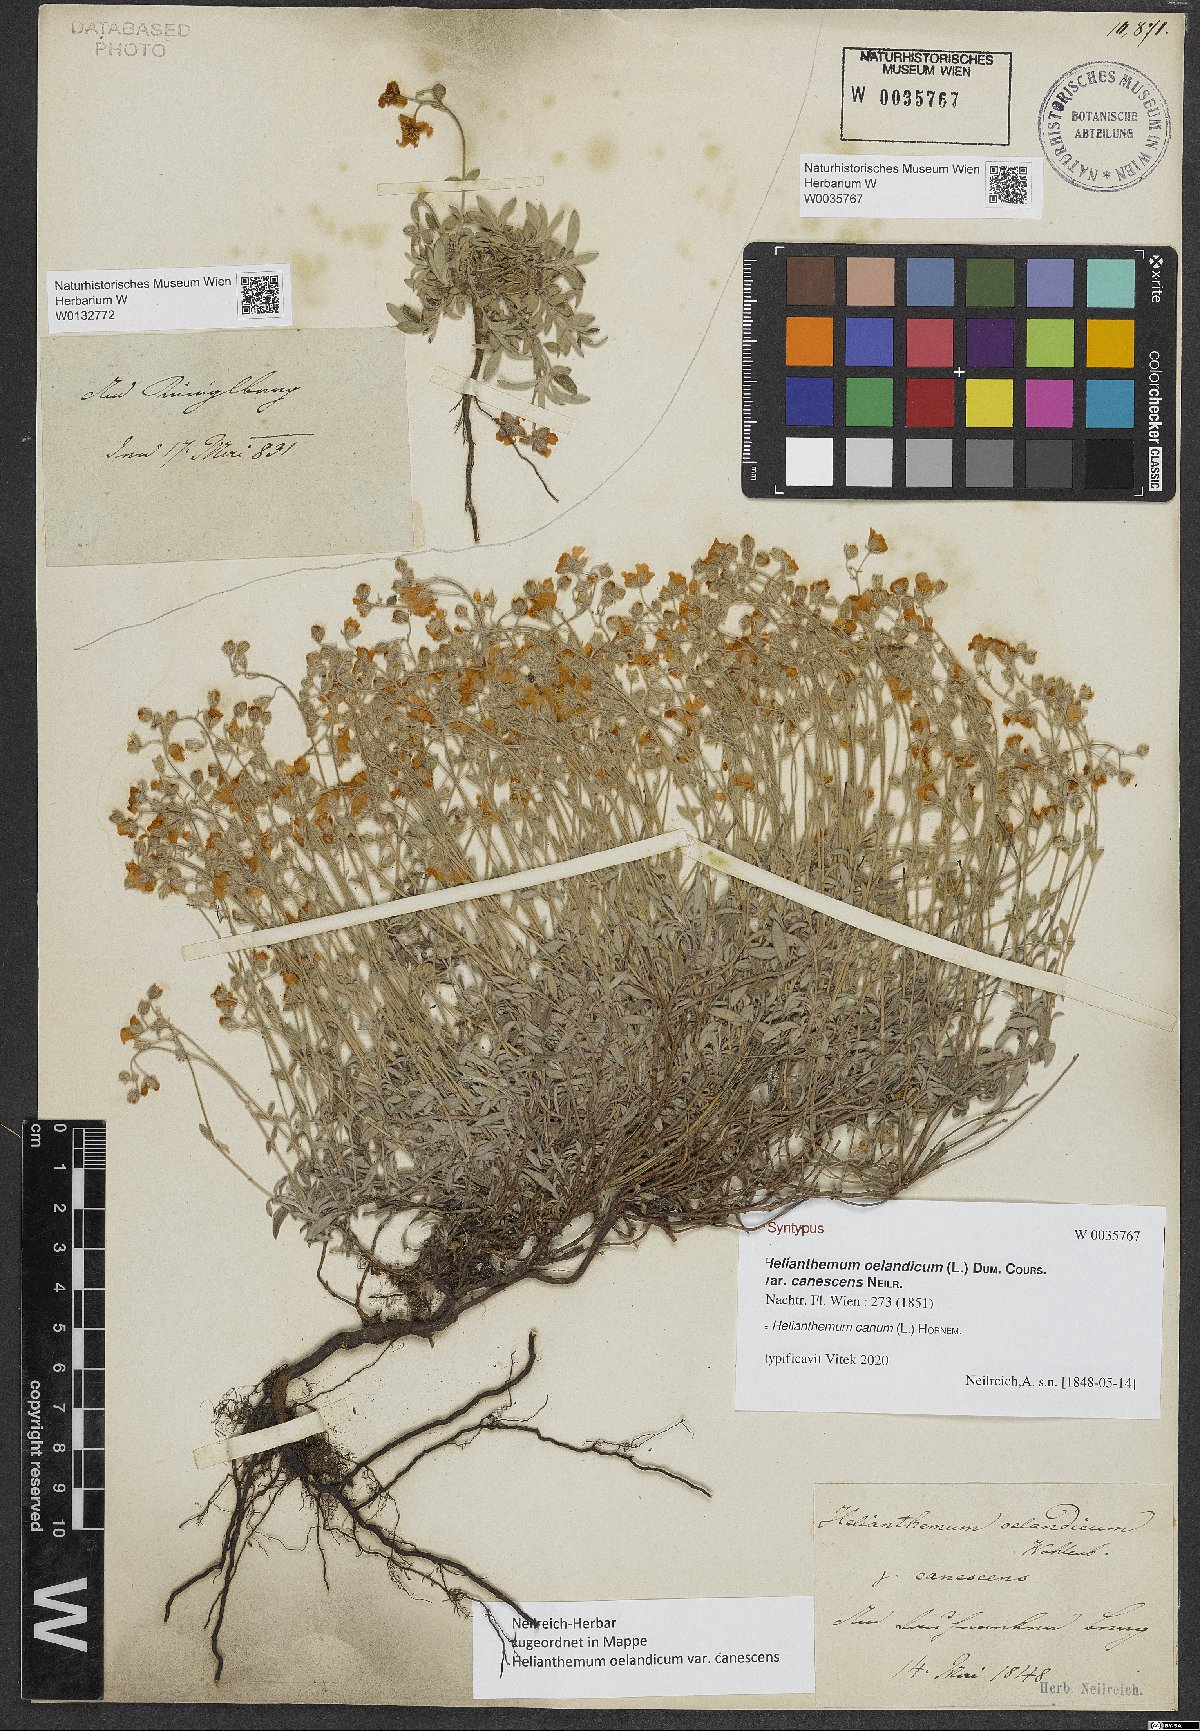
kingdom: Plantae
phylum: Tracheophyta
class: Magnoliopsida
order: Malvales
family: Cistaceae
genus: Helianthemum
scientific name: Helianthemum canum
